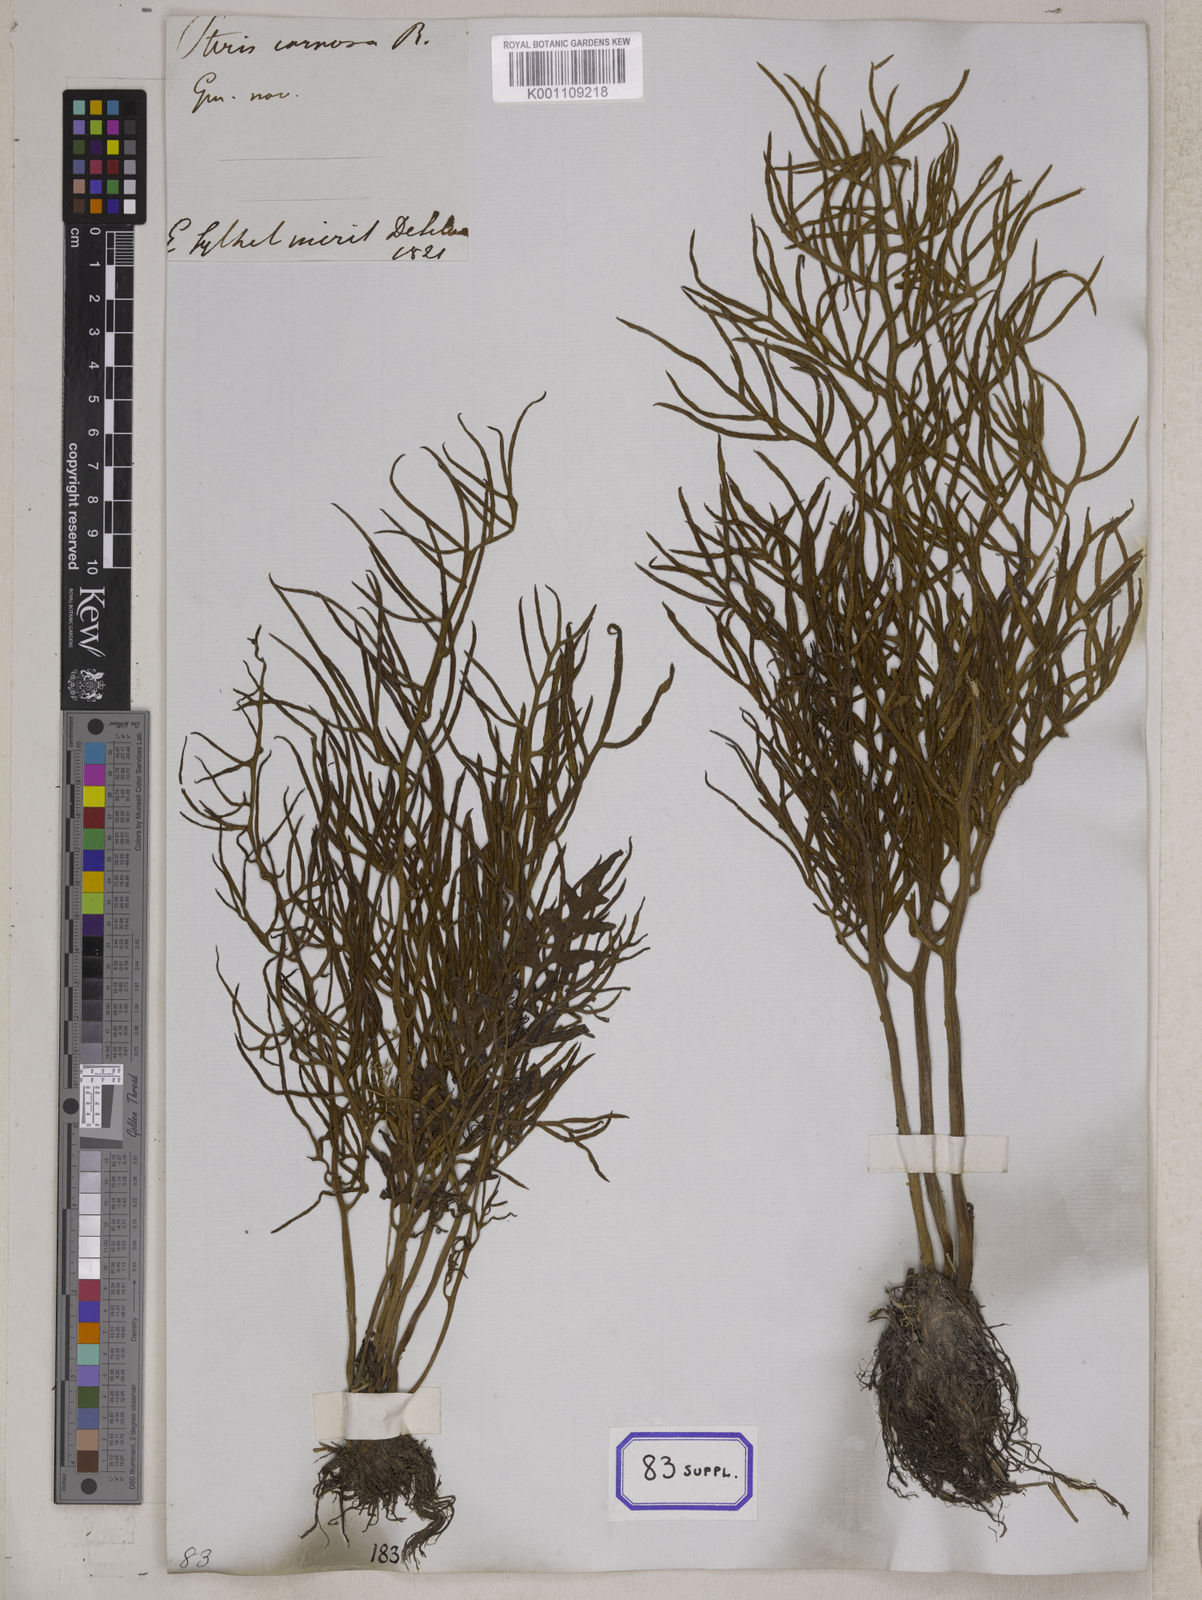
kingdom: Plantae
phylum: Tracheophyta
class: Polypodiopsida
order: Polypodiales
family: Pteridaceae
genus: Ceratopteris
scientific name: Ceratopteris thalictroides
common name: Water fern
